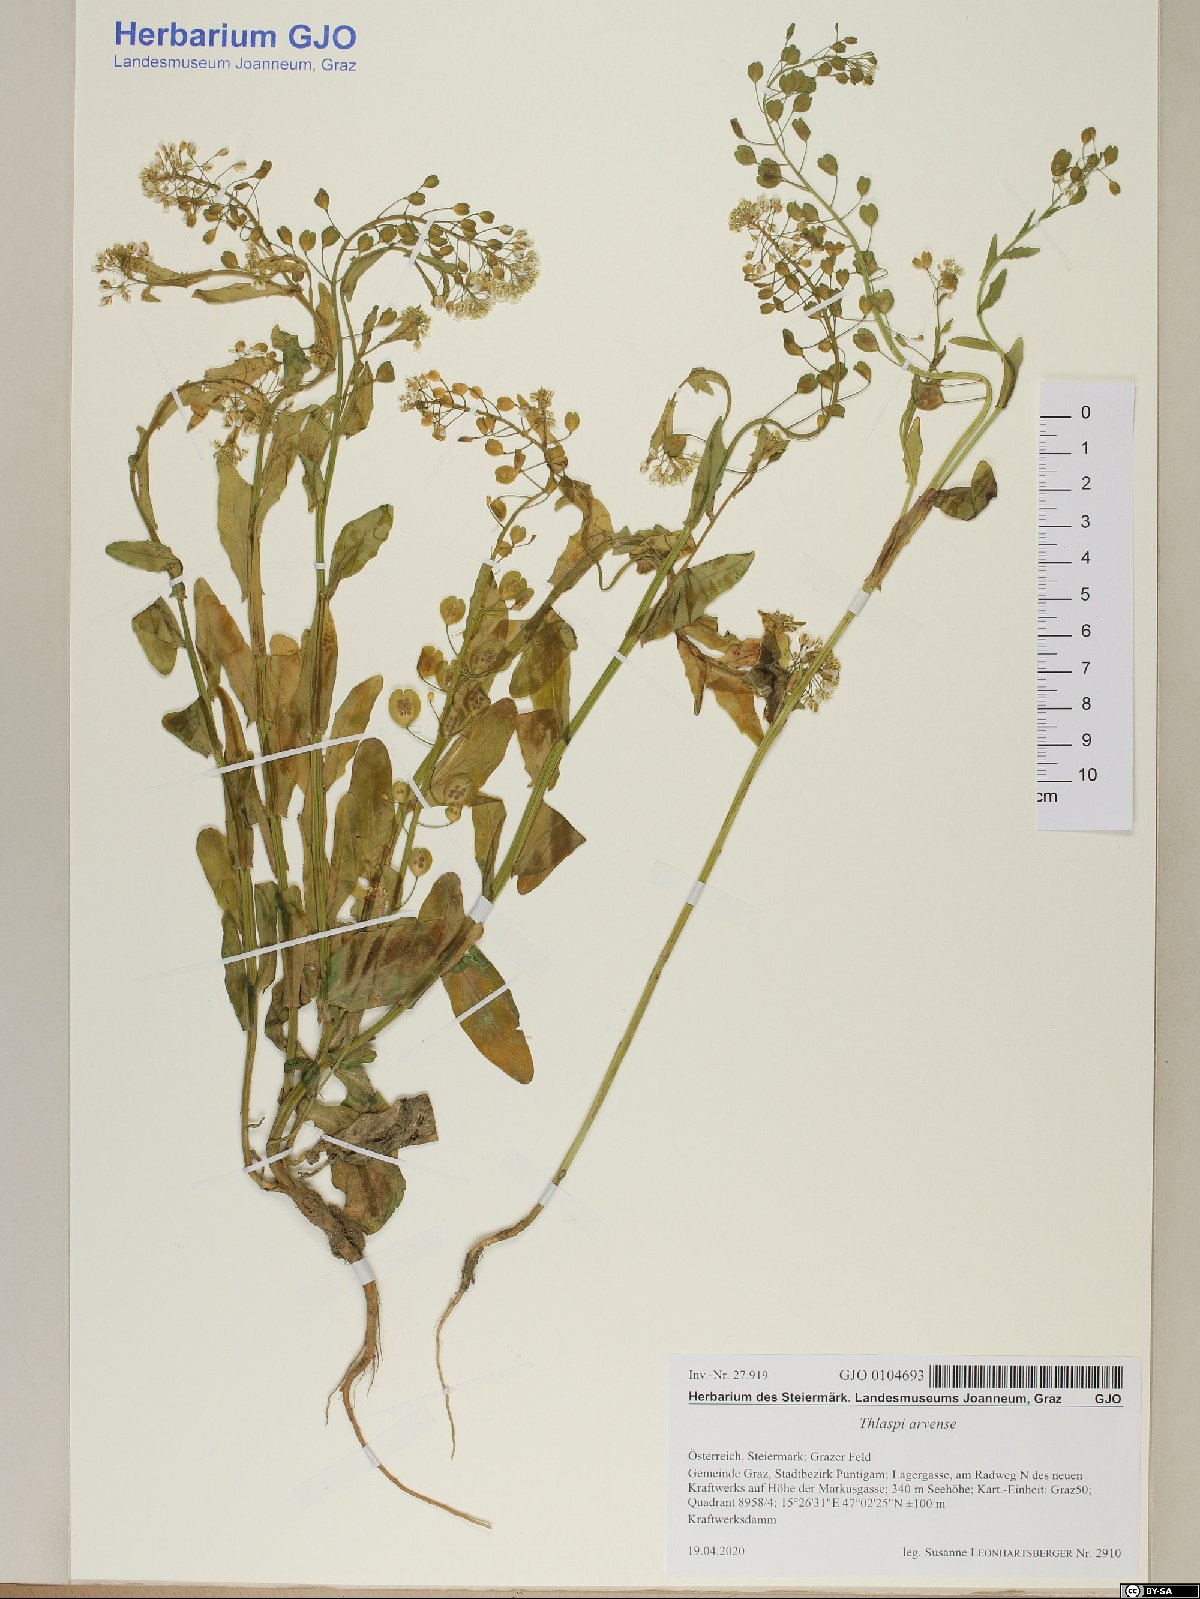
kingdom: Plantae
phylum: Tracheophyta
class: Magnoliopsida
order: Brassicales
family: Brassicaceae
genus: Thlaspi
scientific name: Thlaspi arvense
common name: Field pennycress
